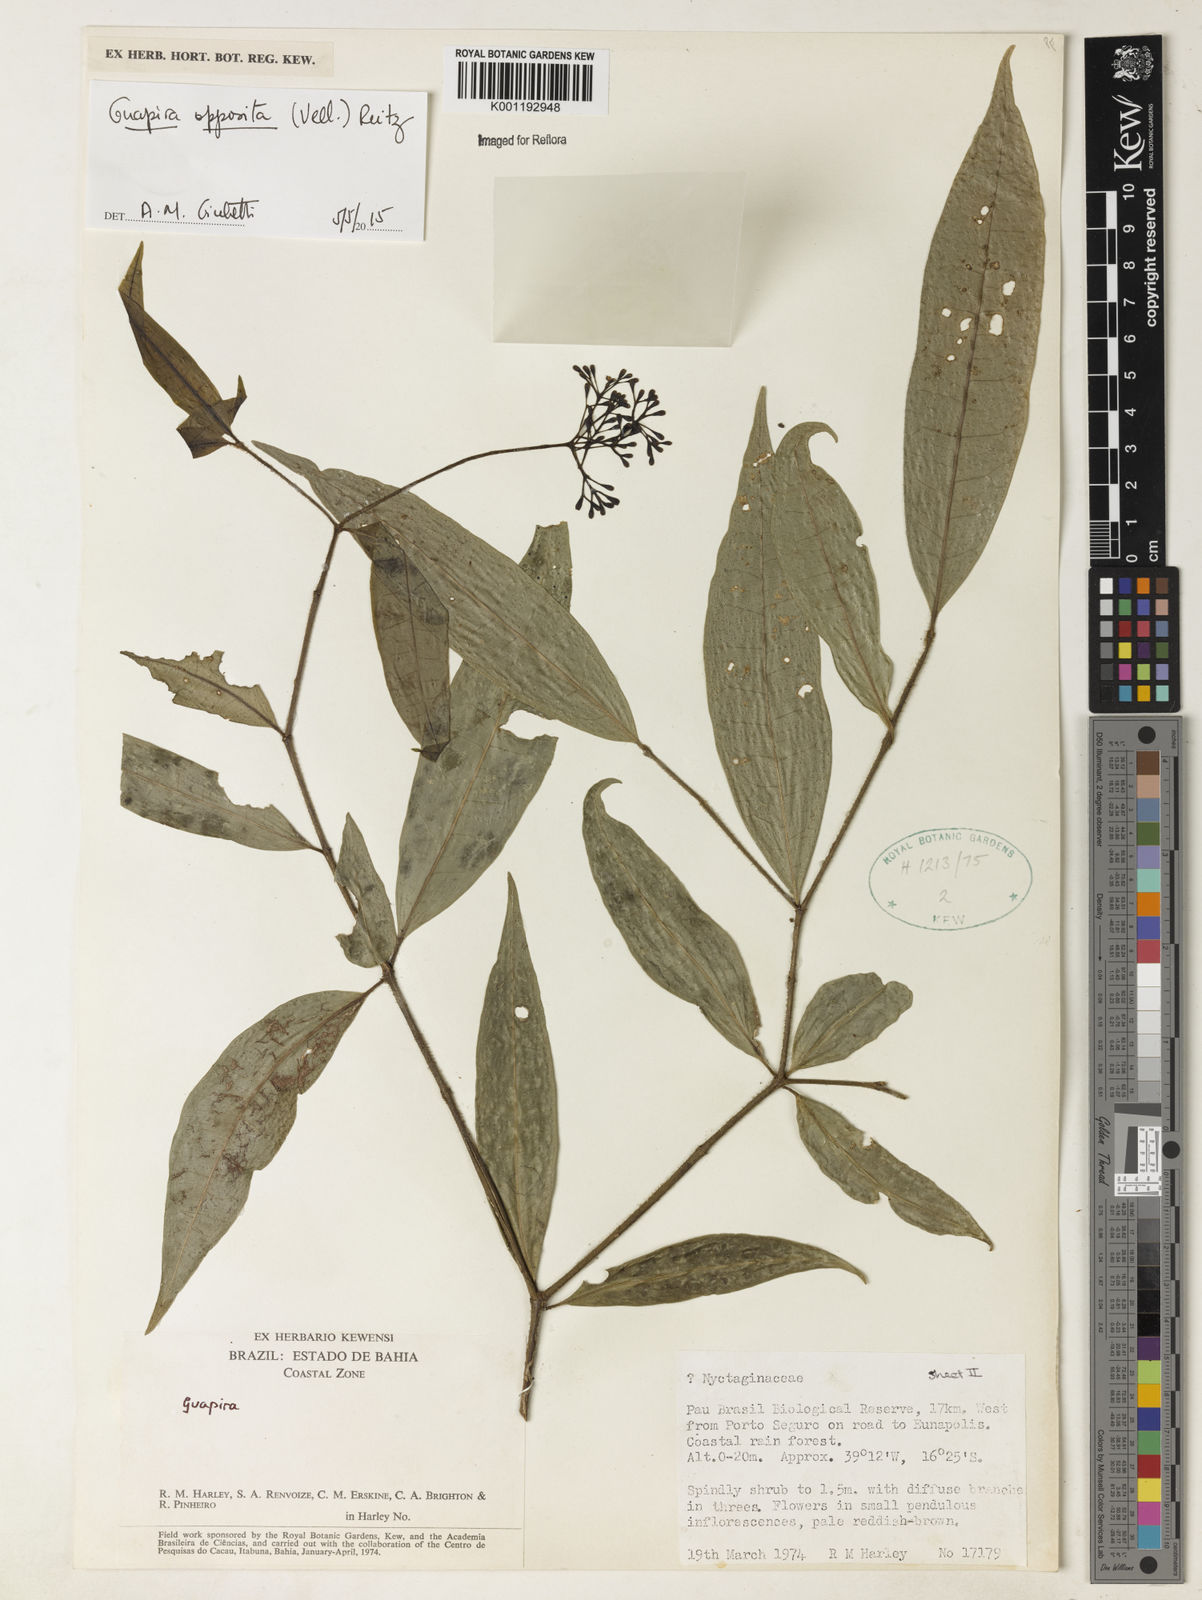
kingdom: Plantae
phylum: Tracheophyta
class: Magnoliopsida
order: Caryophyllales
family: Nyctaginaceae
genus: Guapira
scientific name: Guapira opposita
